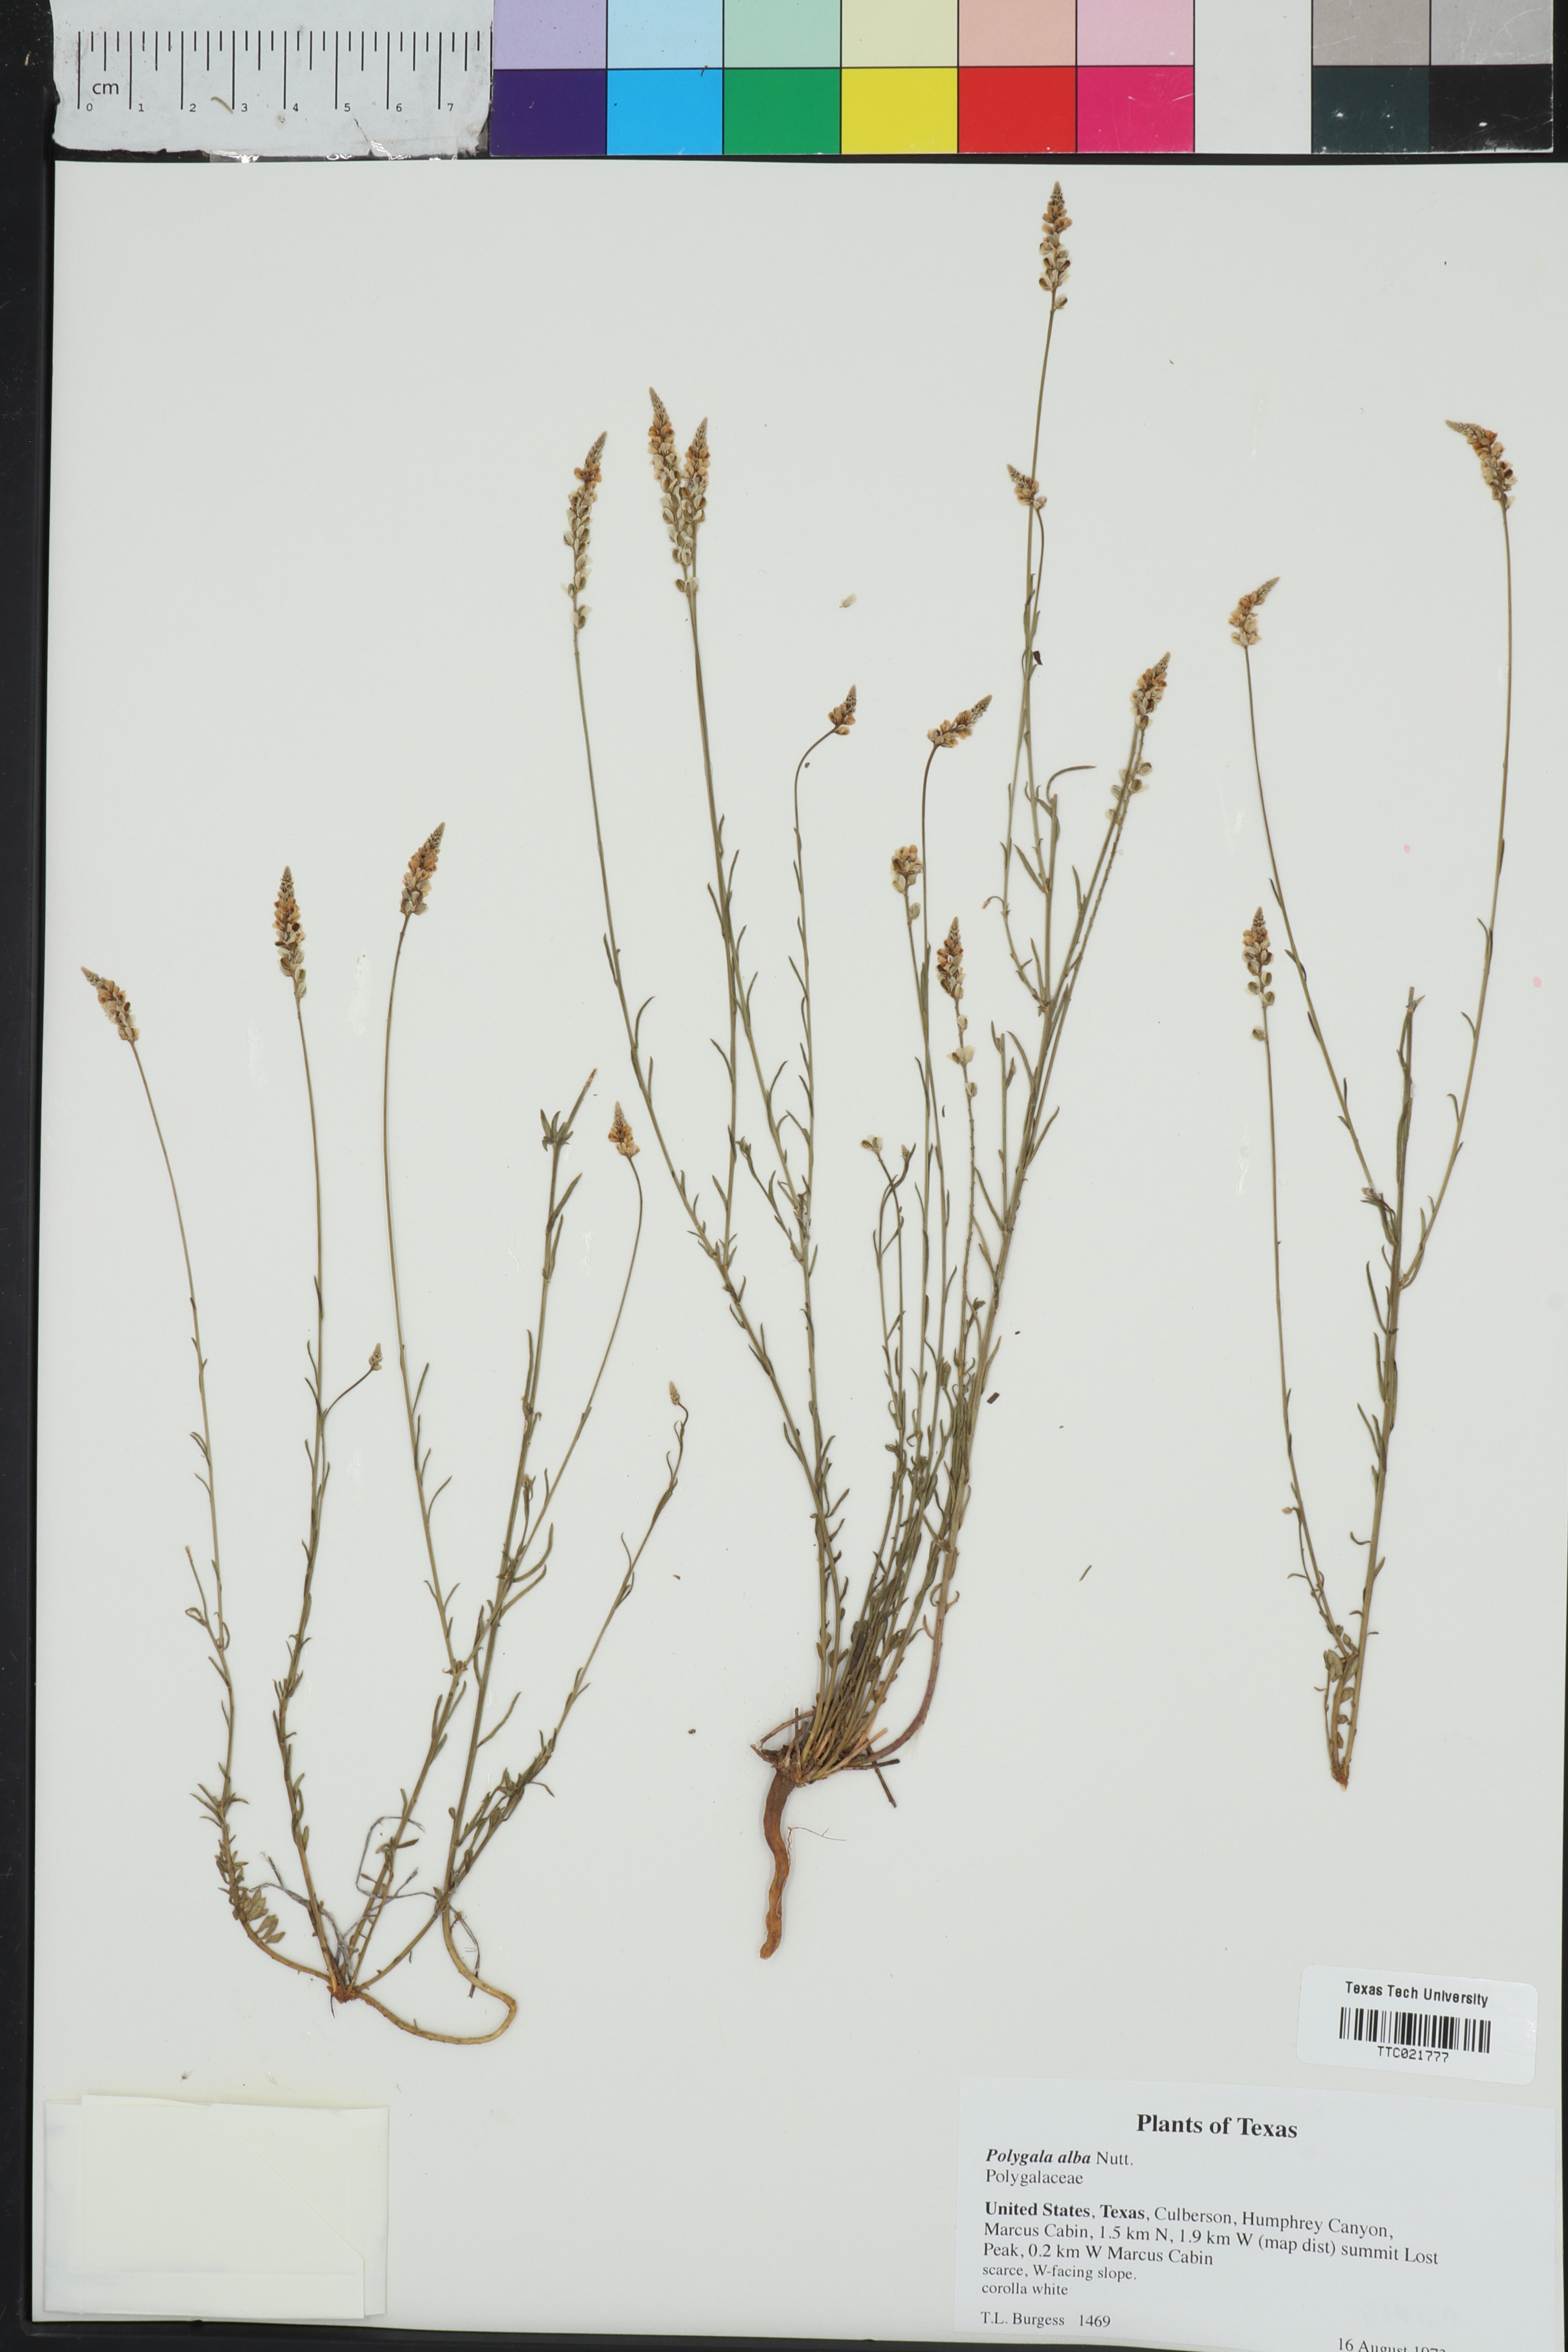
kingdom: Plantae
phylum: Tracheophyta
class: Magnoliopsida
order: Fabales
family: Polygalaceae
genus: Polygala
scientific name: Polygala alba
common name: White milkwort
